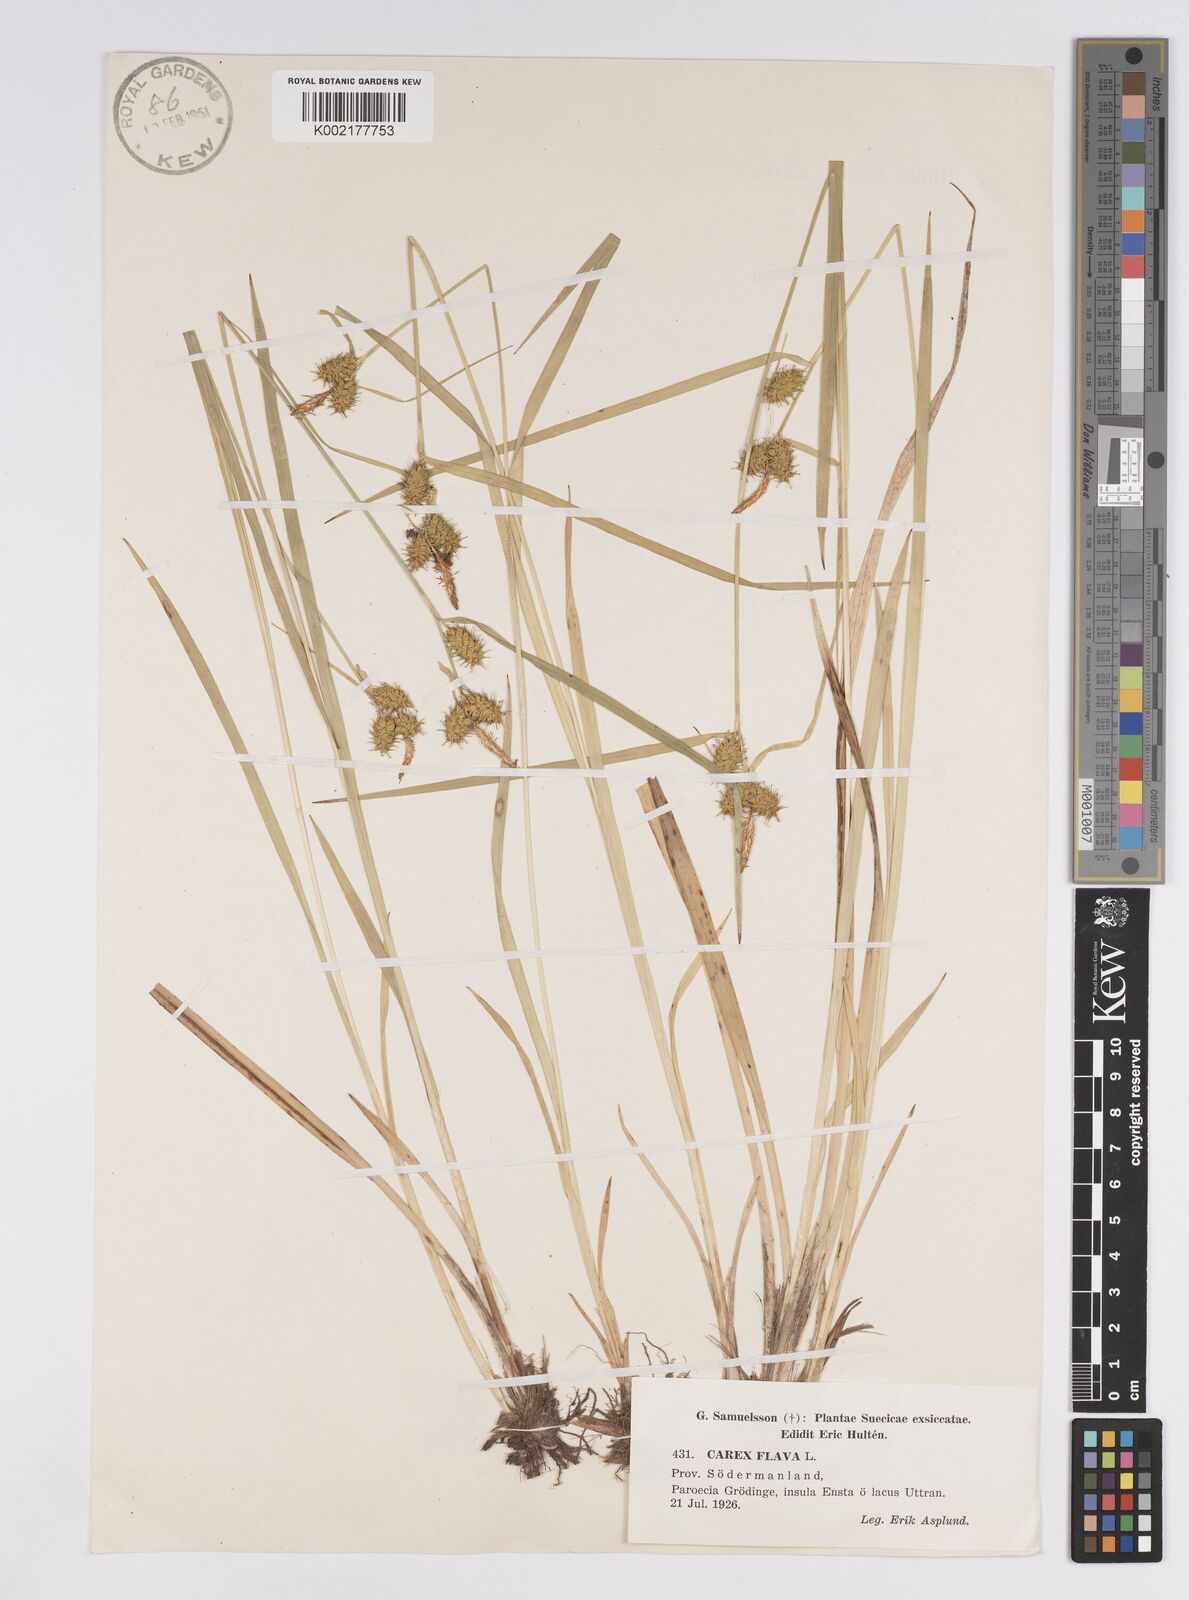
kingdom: Plantae
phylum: Tracheophyta
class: Liliopsida
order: Poales
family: Cyperaceae
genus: Carex
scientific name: Carex flava
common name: Large yellow-sedge
